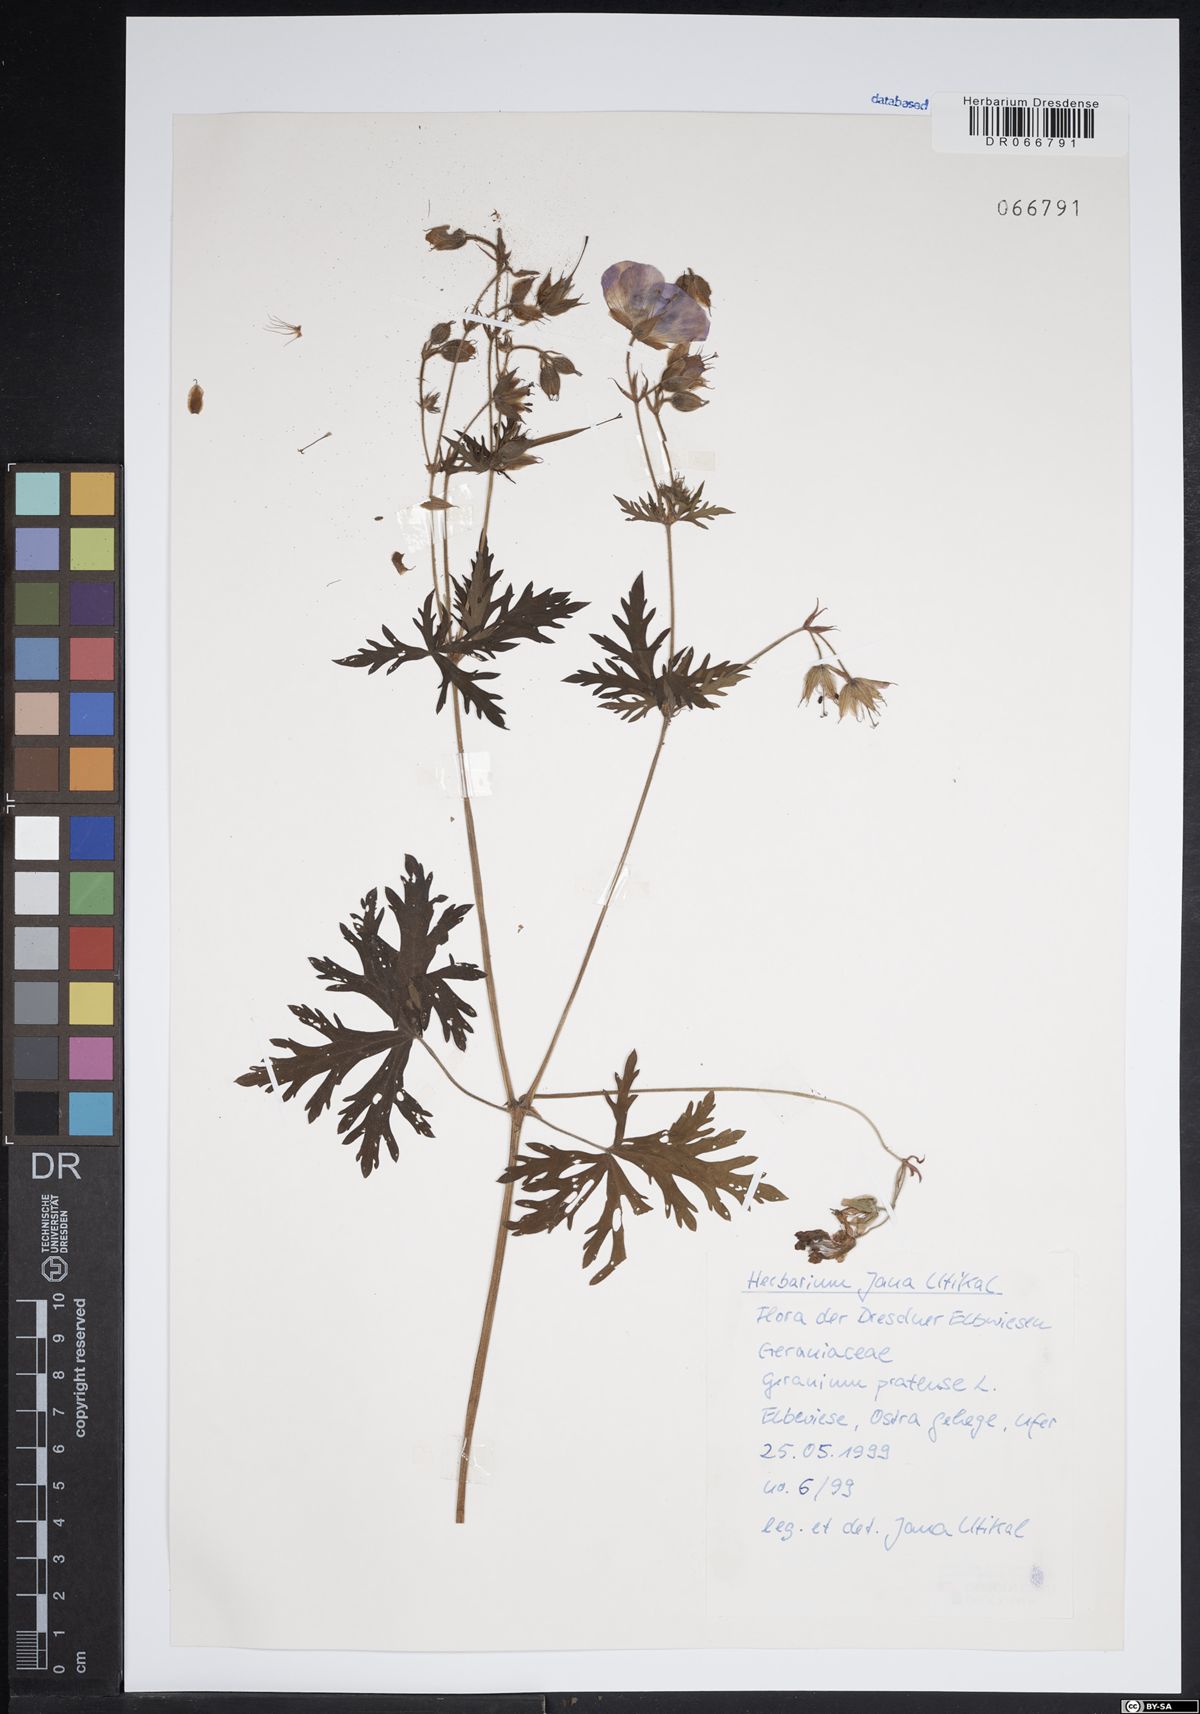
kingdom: Plantae
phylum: Tracheophyta
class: Magnoliopsida
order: Geraniales
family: Geraniaceae
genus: Geranium
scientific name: Geranium pratense
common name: Meadow crane's-bill
